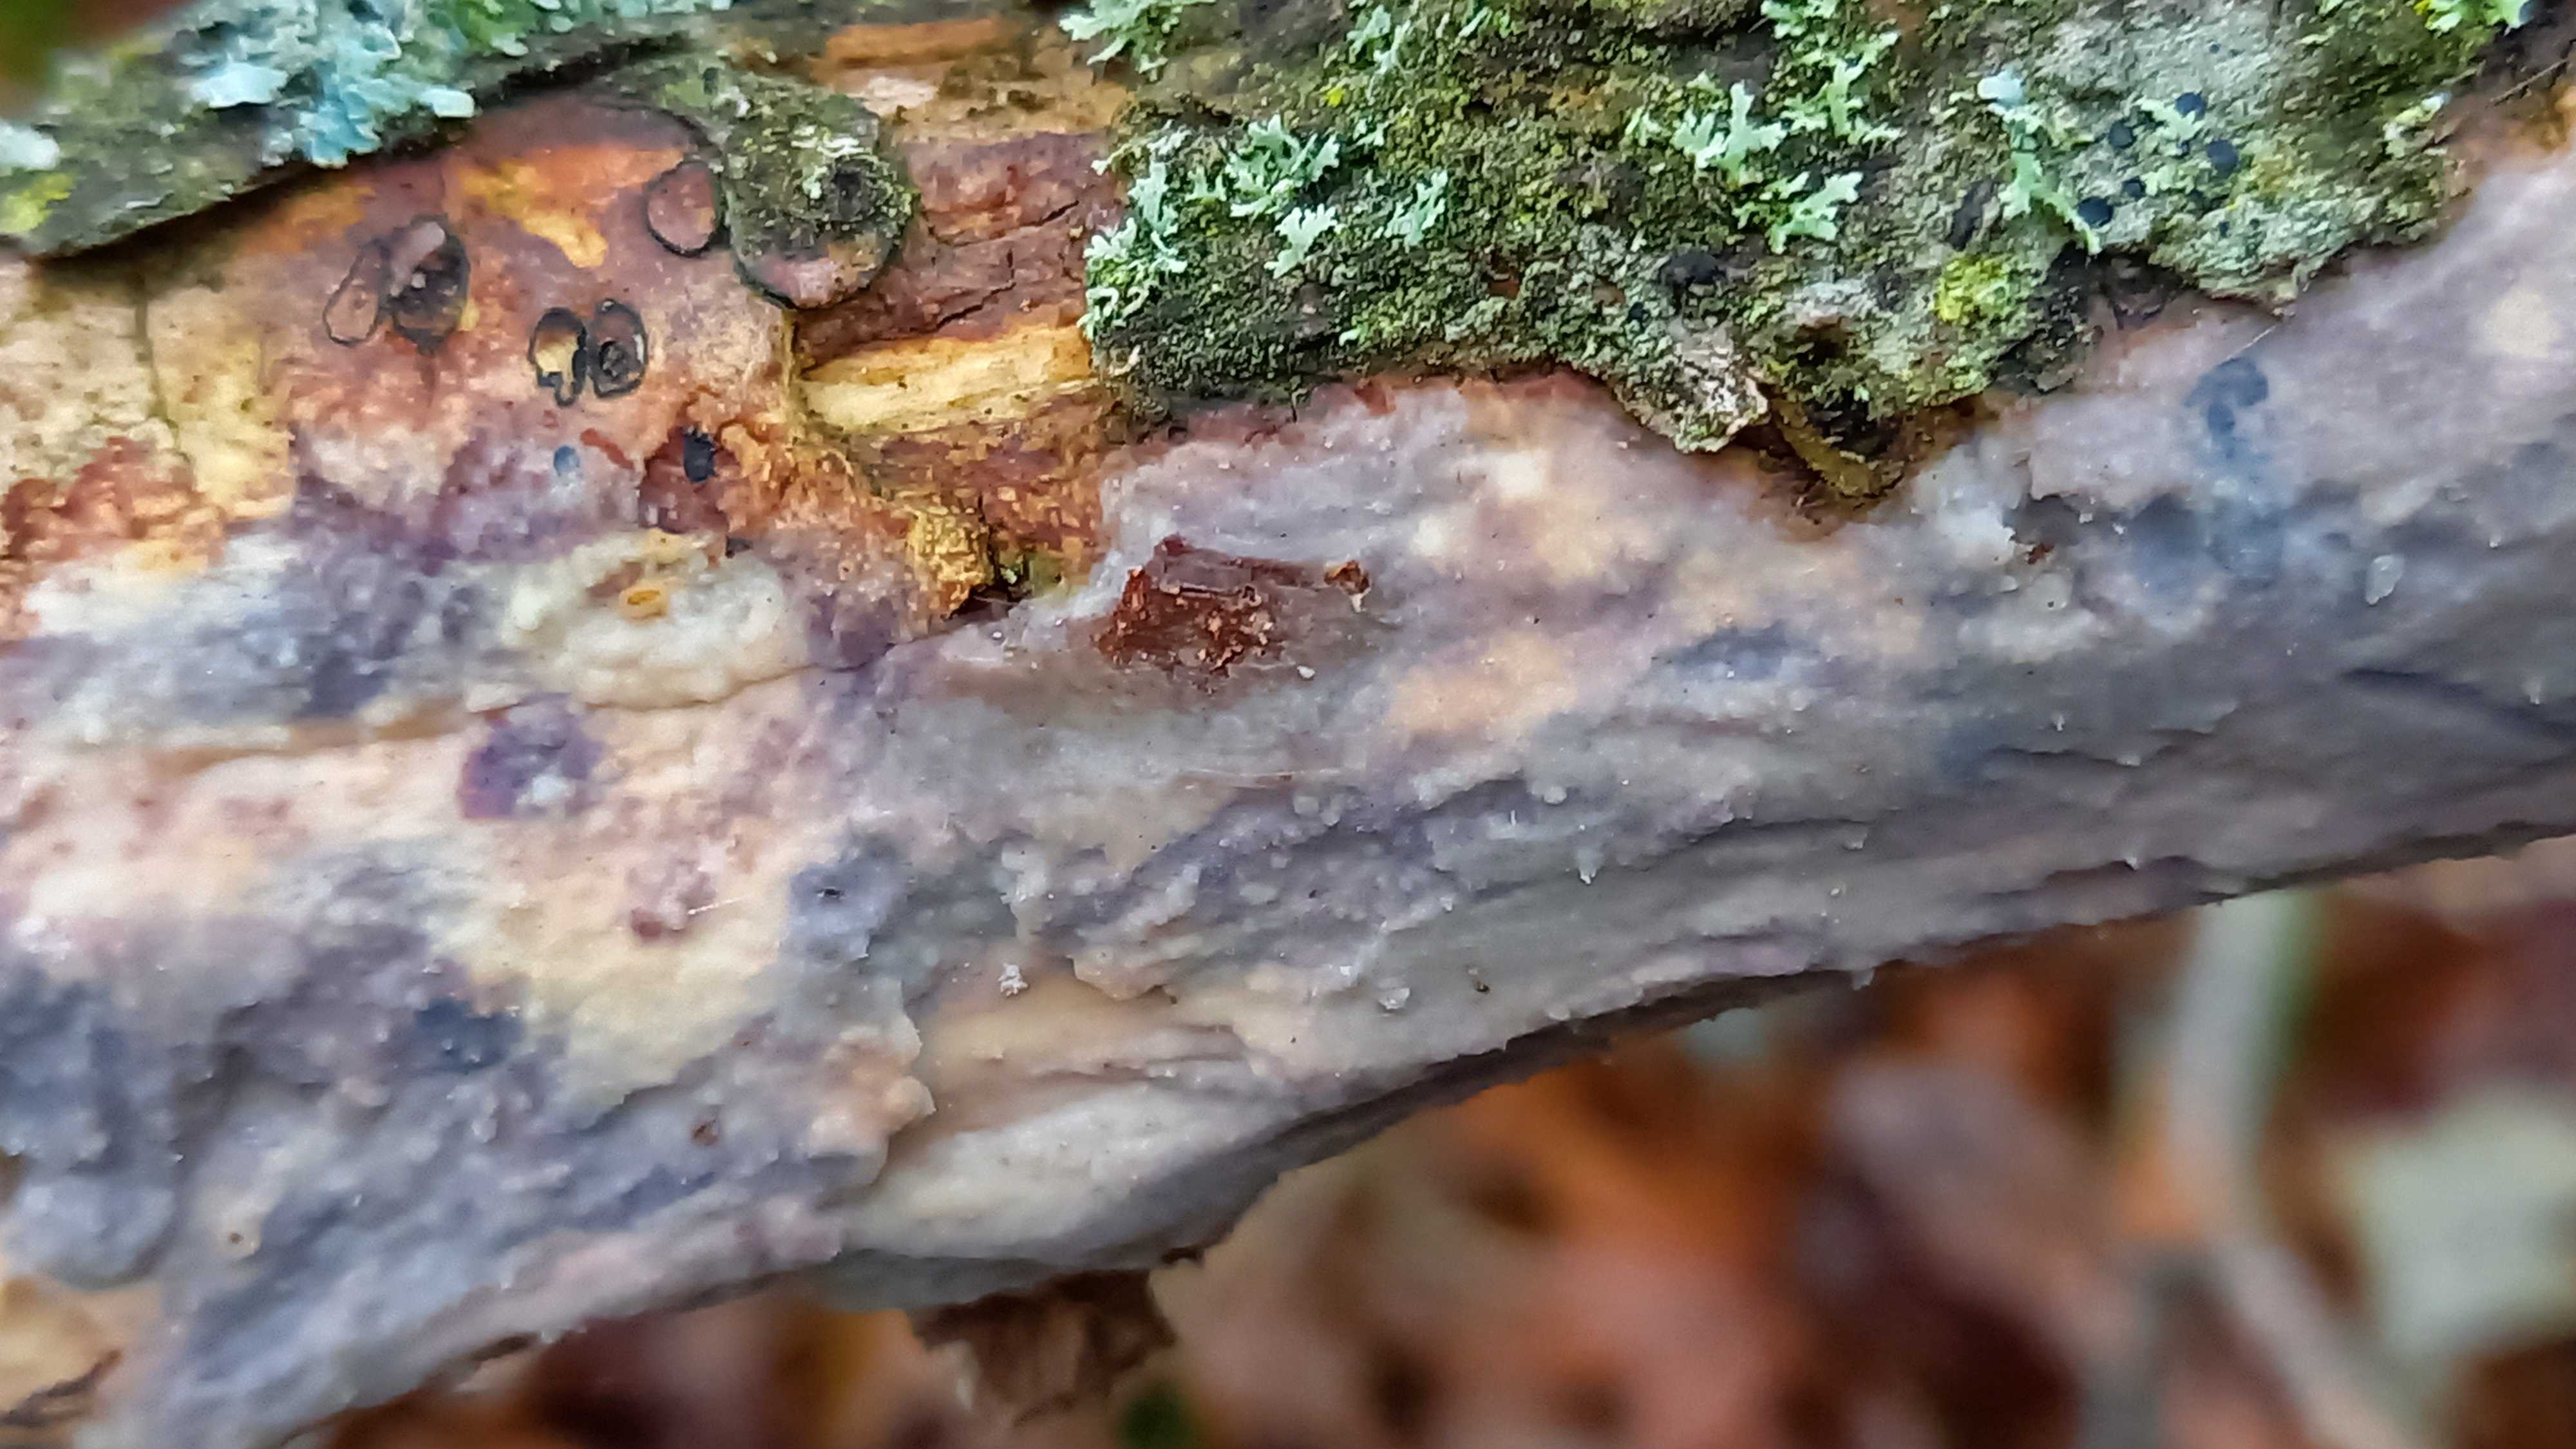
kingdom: Fungi
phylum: Basidiomycota
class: Tremellomycetes
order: Tremellales
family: Exidiaceae
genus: Exidiopsis
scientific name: Exidiopsis effusa
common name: smuk bævrehinde
